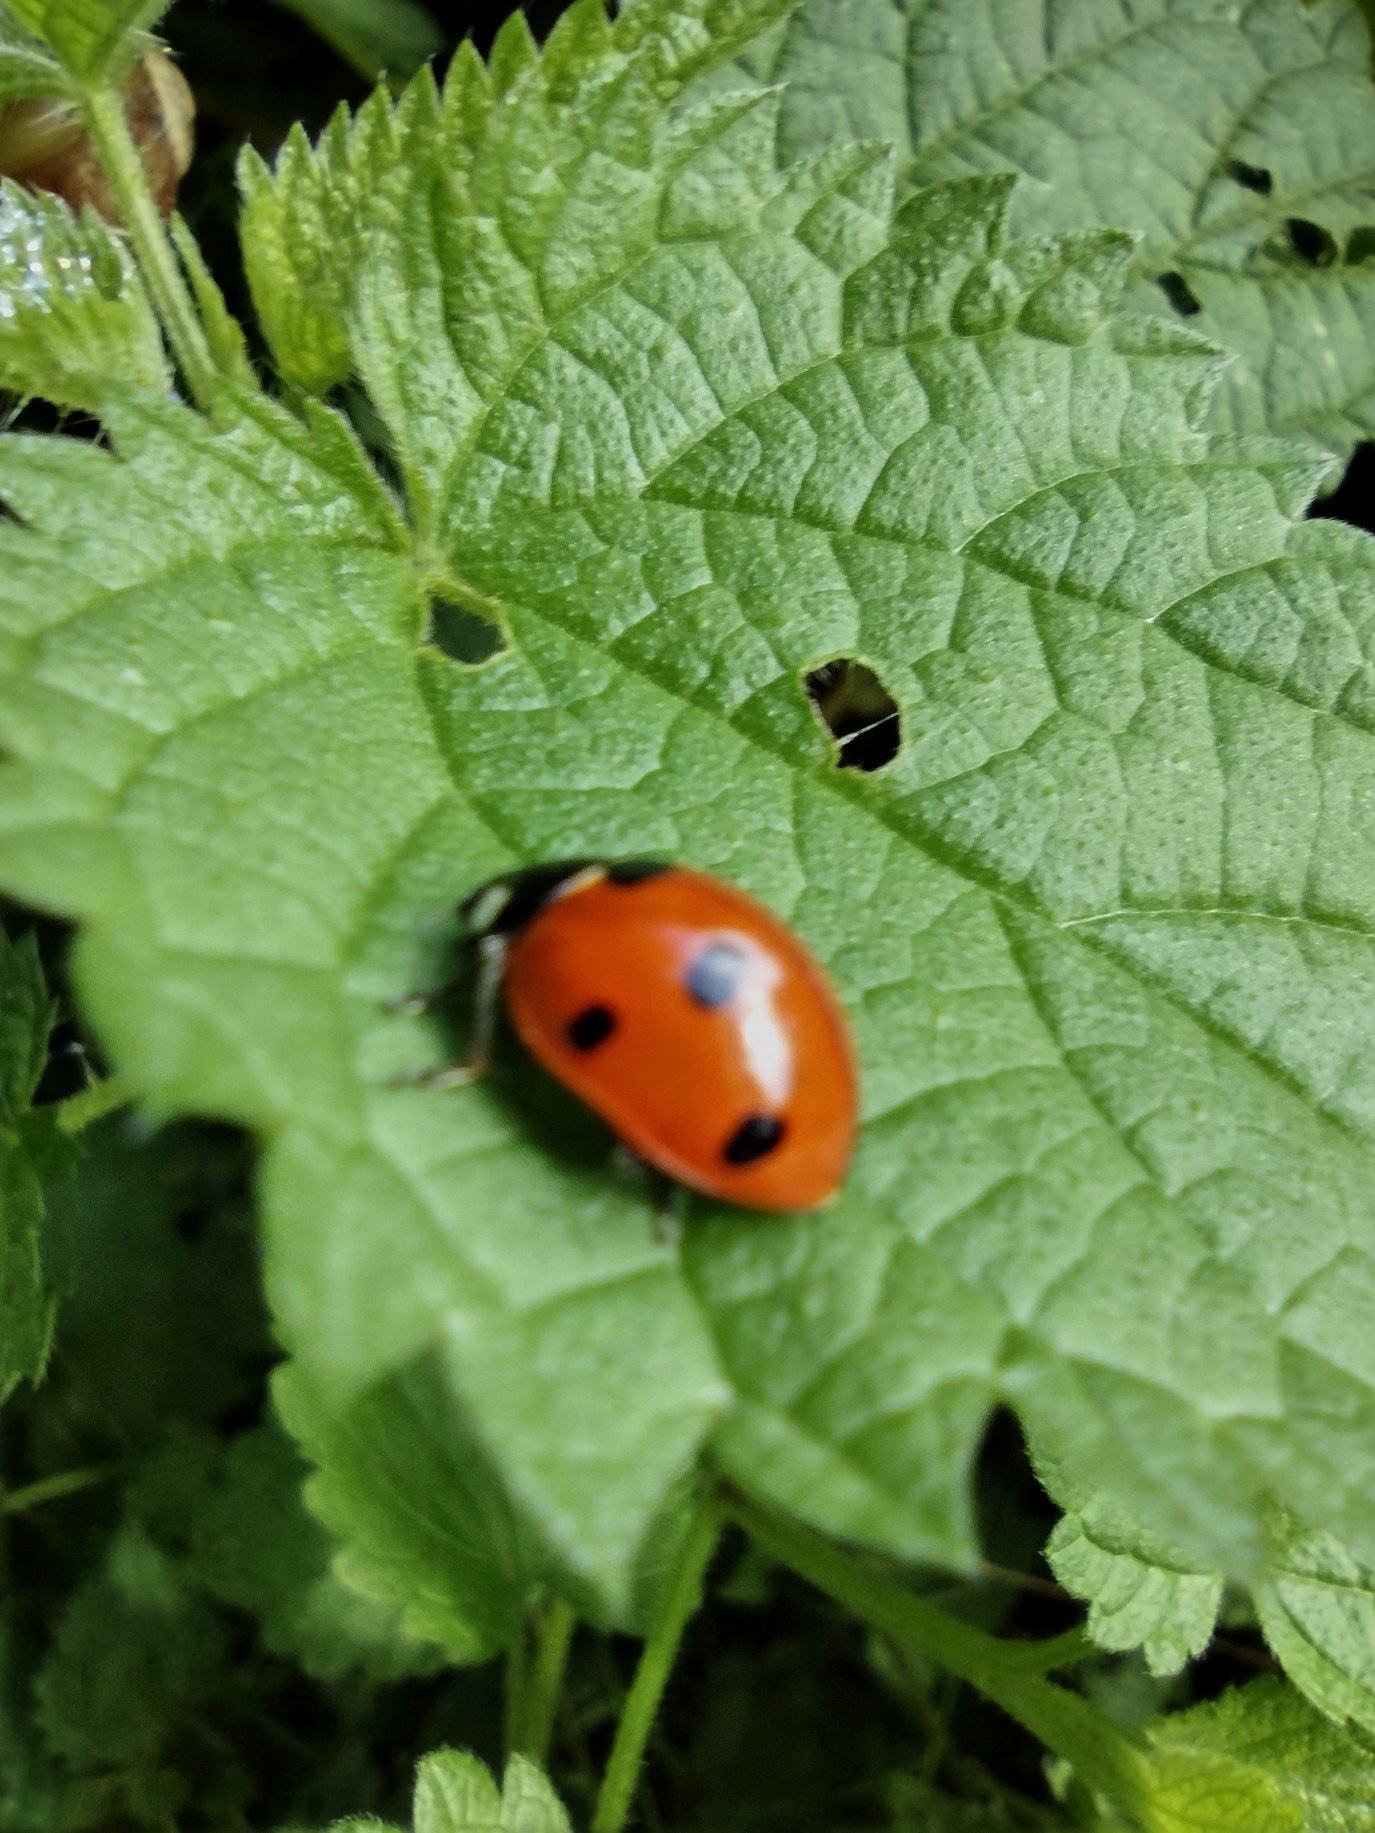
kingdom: Animalia
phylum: Arthropoda
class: Insecta
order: Coleoptera
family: Coccinellidae
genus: Coccinella
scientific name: Coccinella septempunctata
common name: Syvplettet mariehøne
